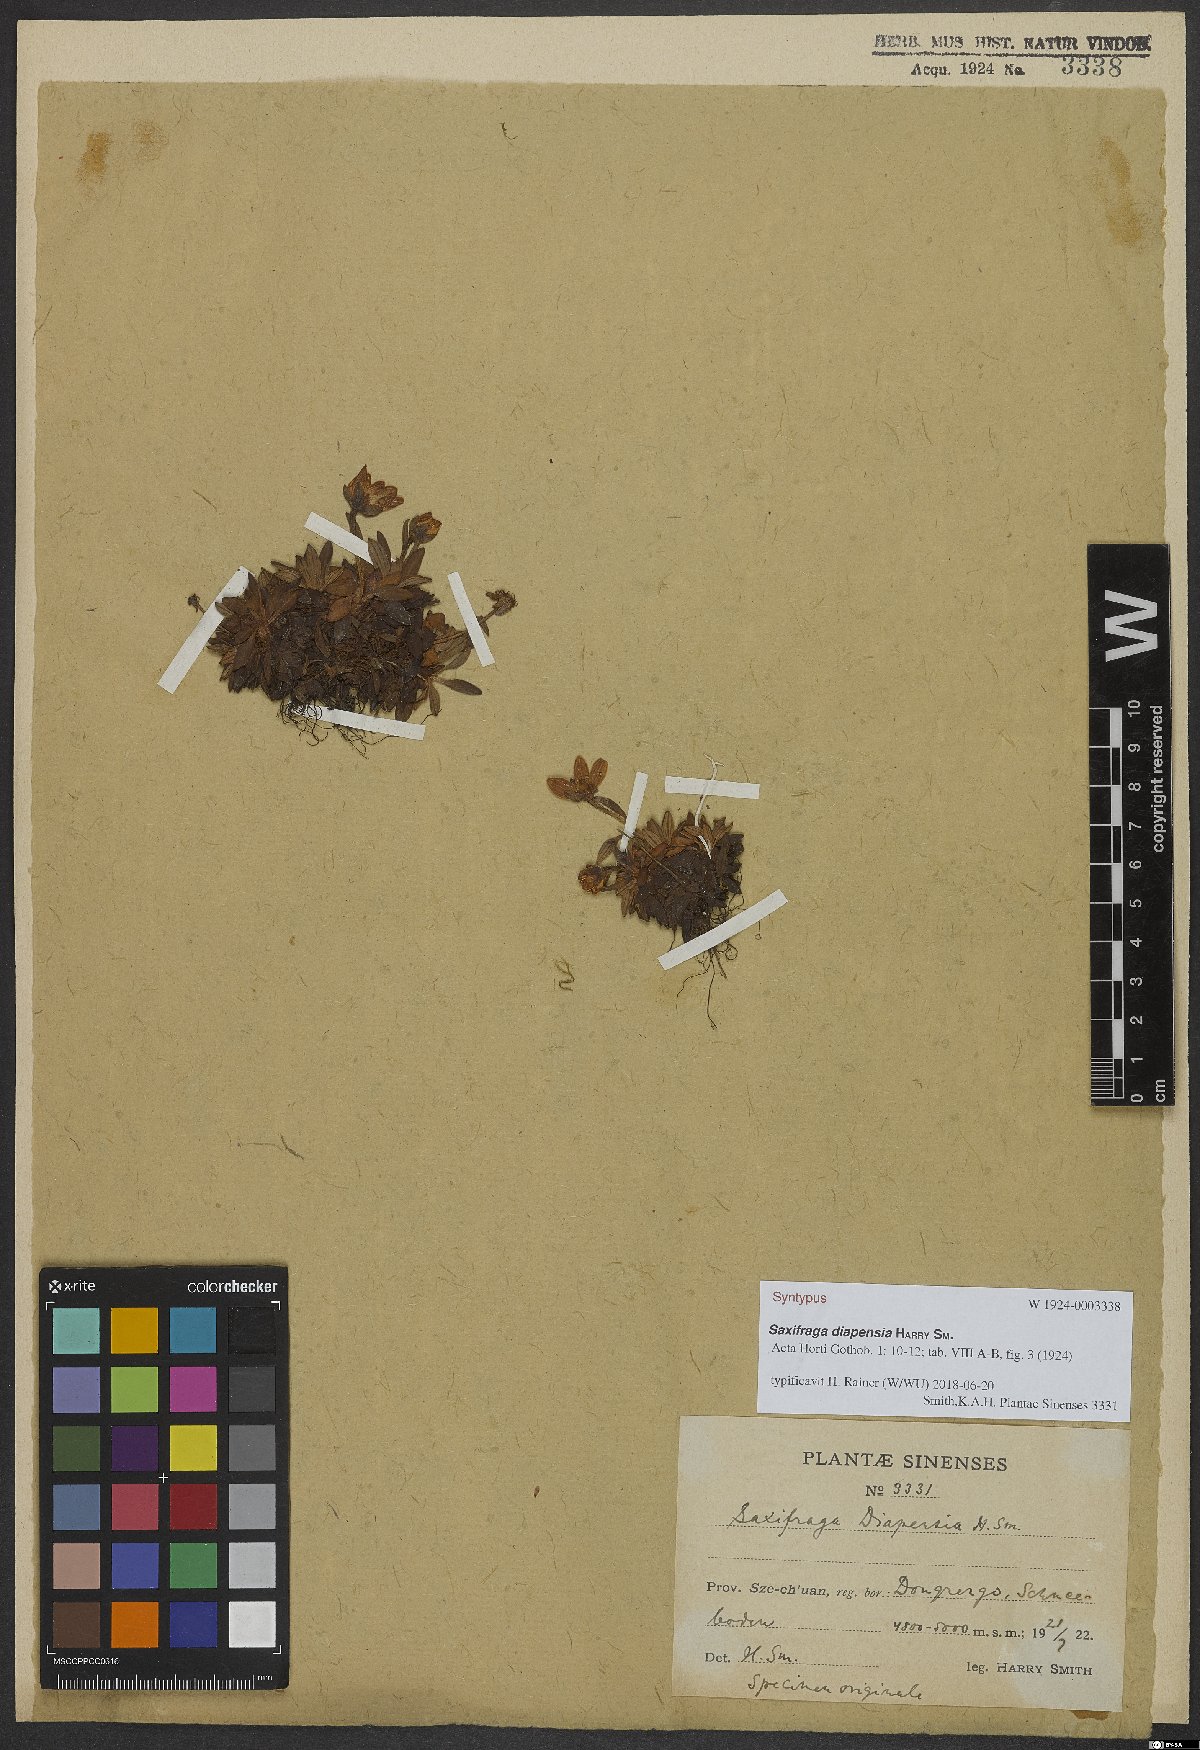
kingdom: Plantae
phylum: Tracheophyta
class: Magnoliopsida
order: Saxifragales
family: Saxifragaceae
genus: Saxifraga
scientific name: Saxifraga diapensia
